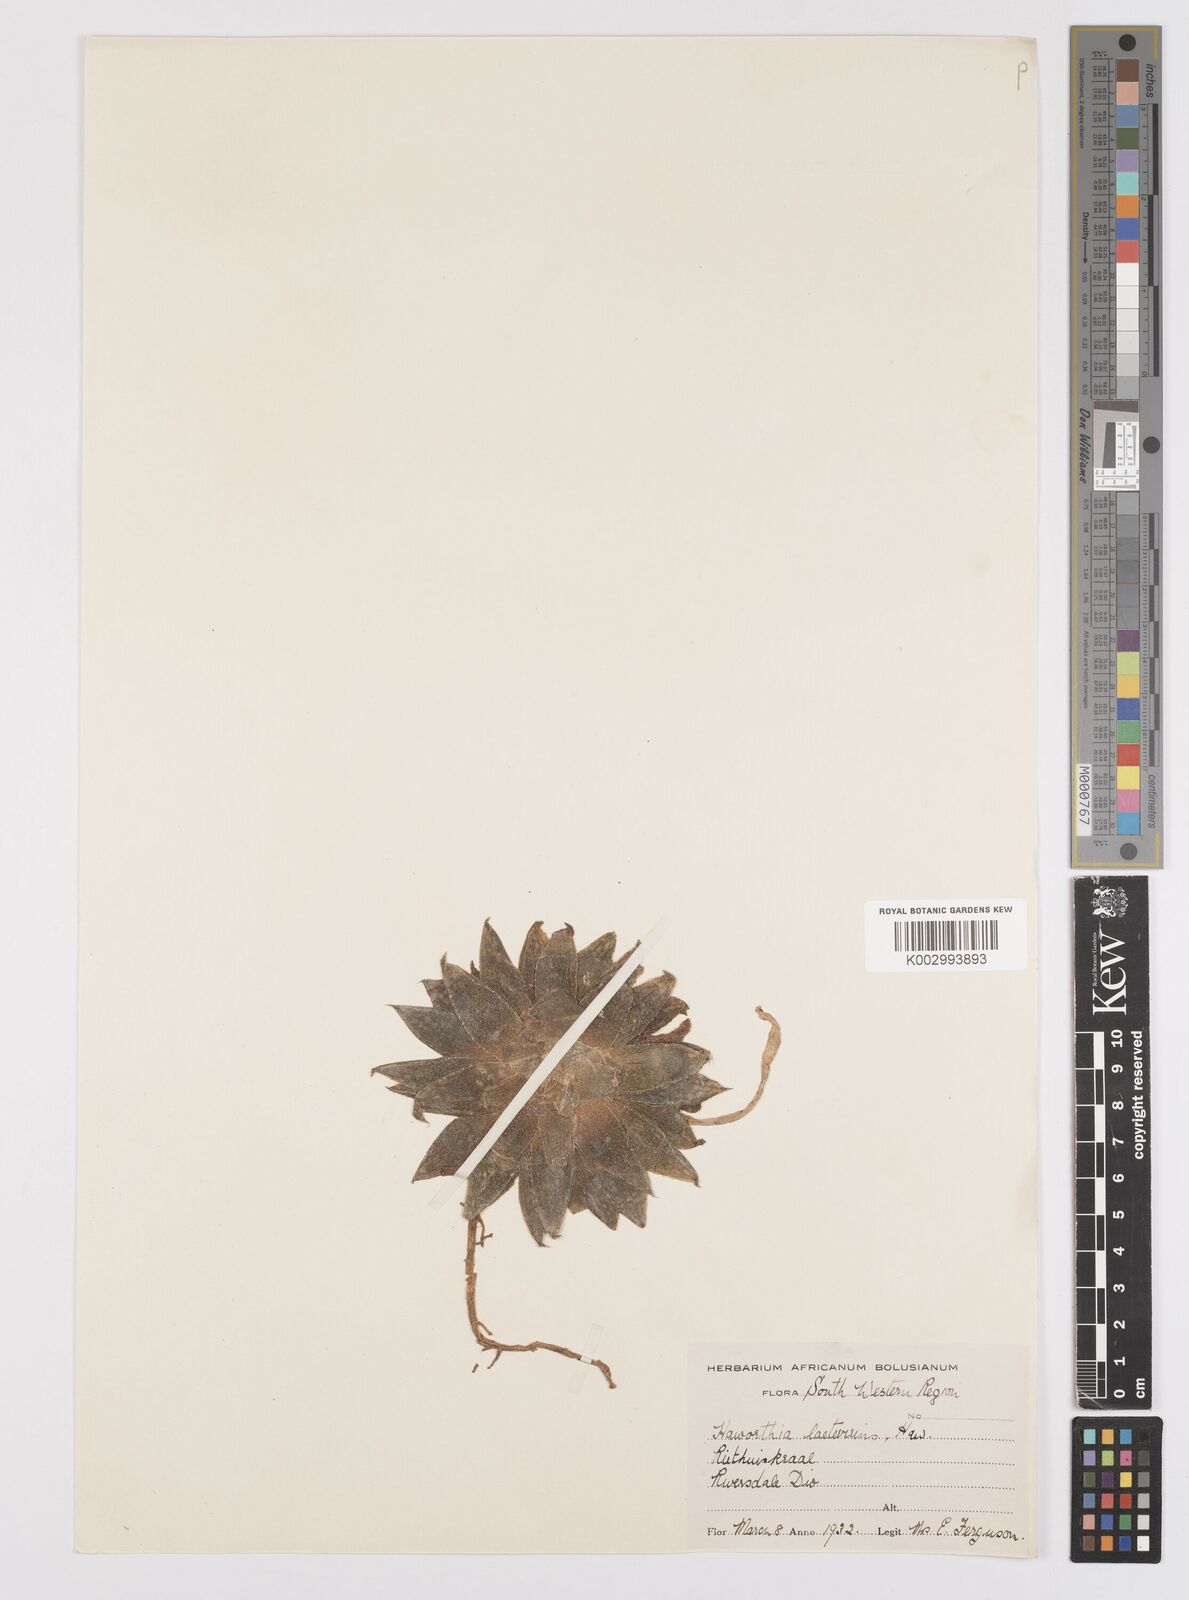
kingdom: Plantae
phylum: Tracheophyta
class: Liliopsida
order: Asparagales
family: Asphodelaceae
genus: Haworthia
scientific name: Haworthia turgida
